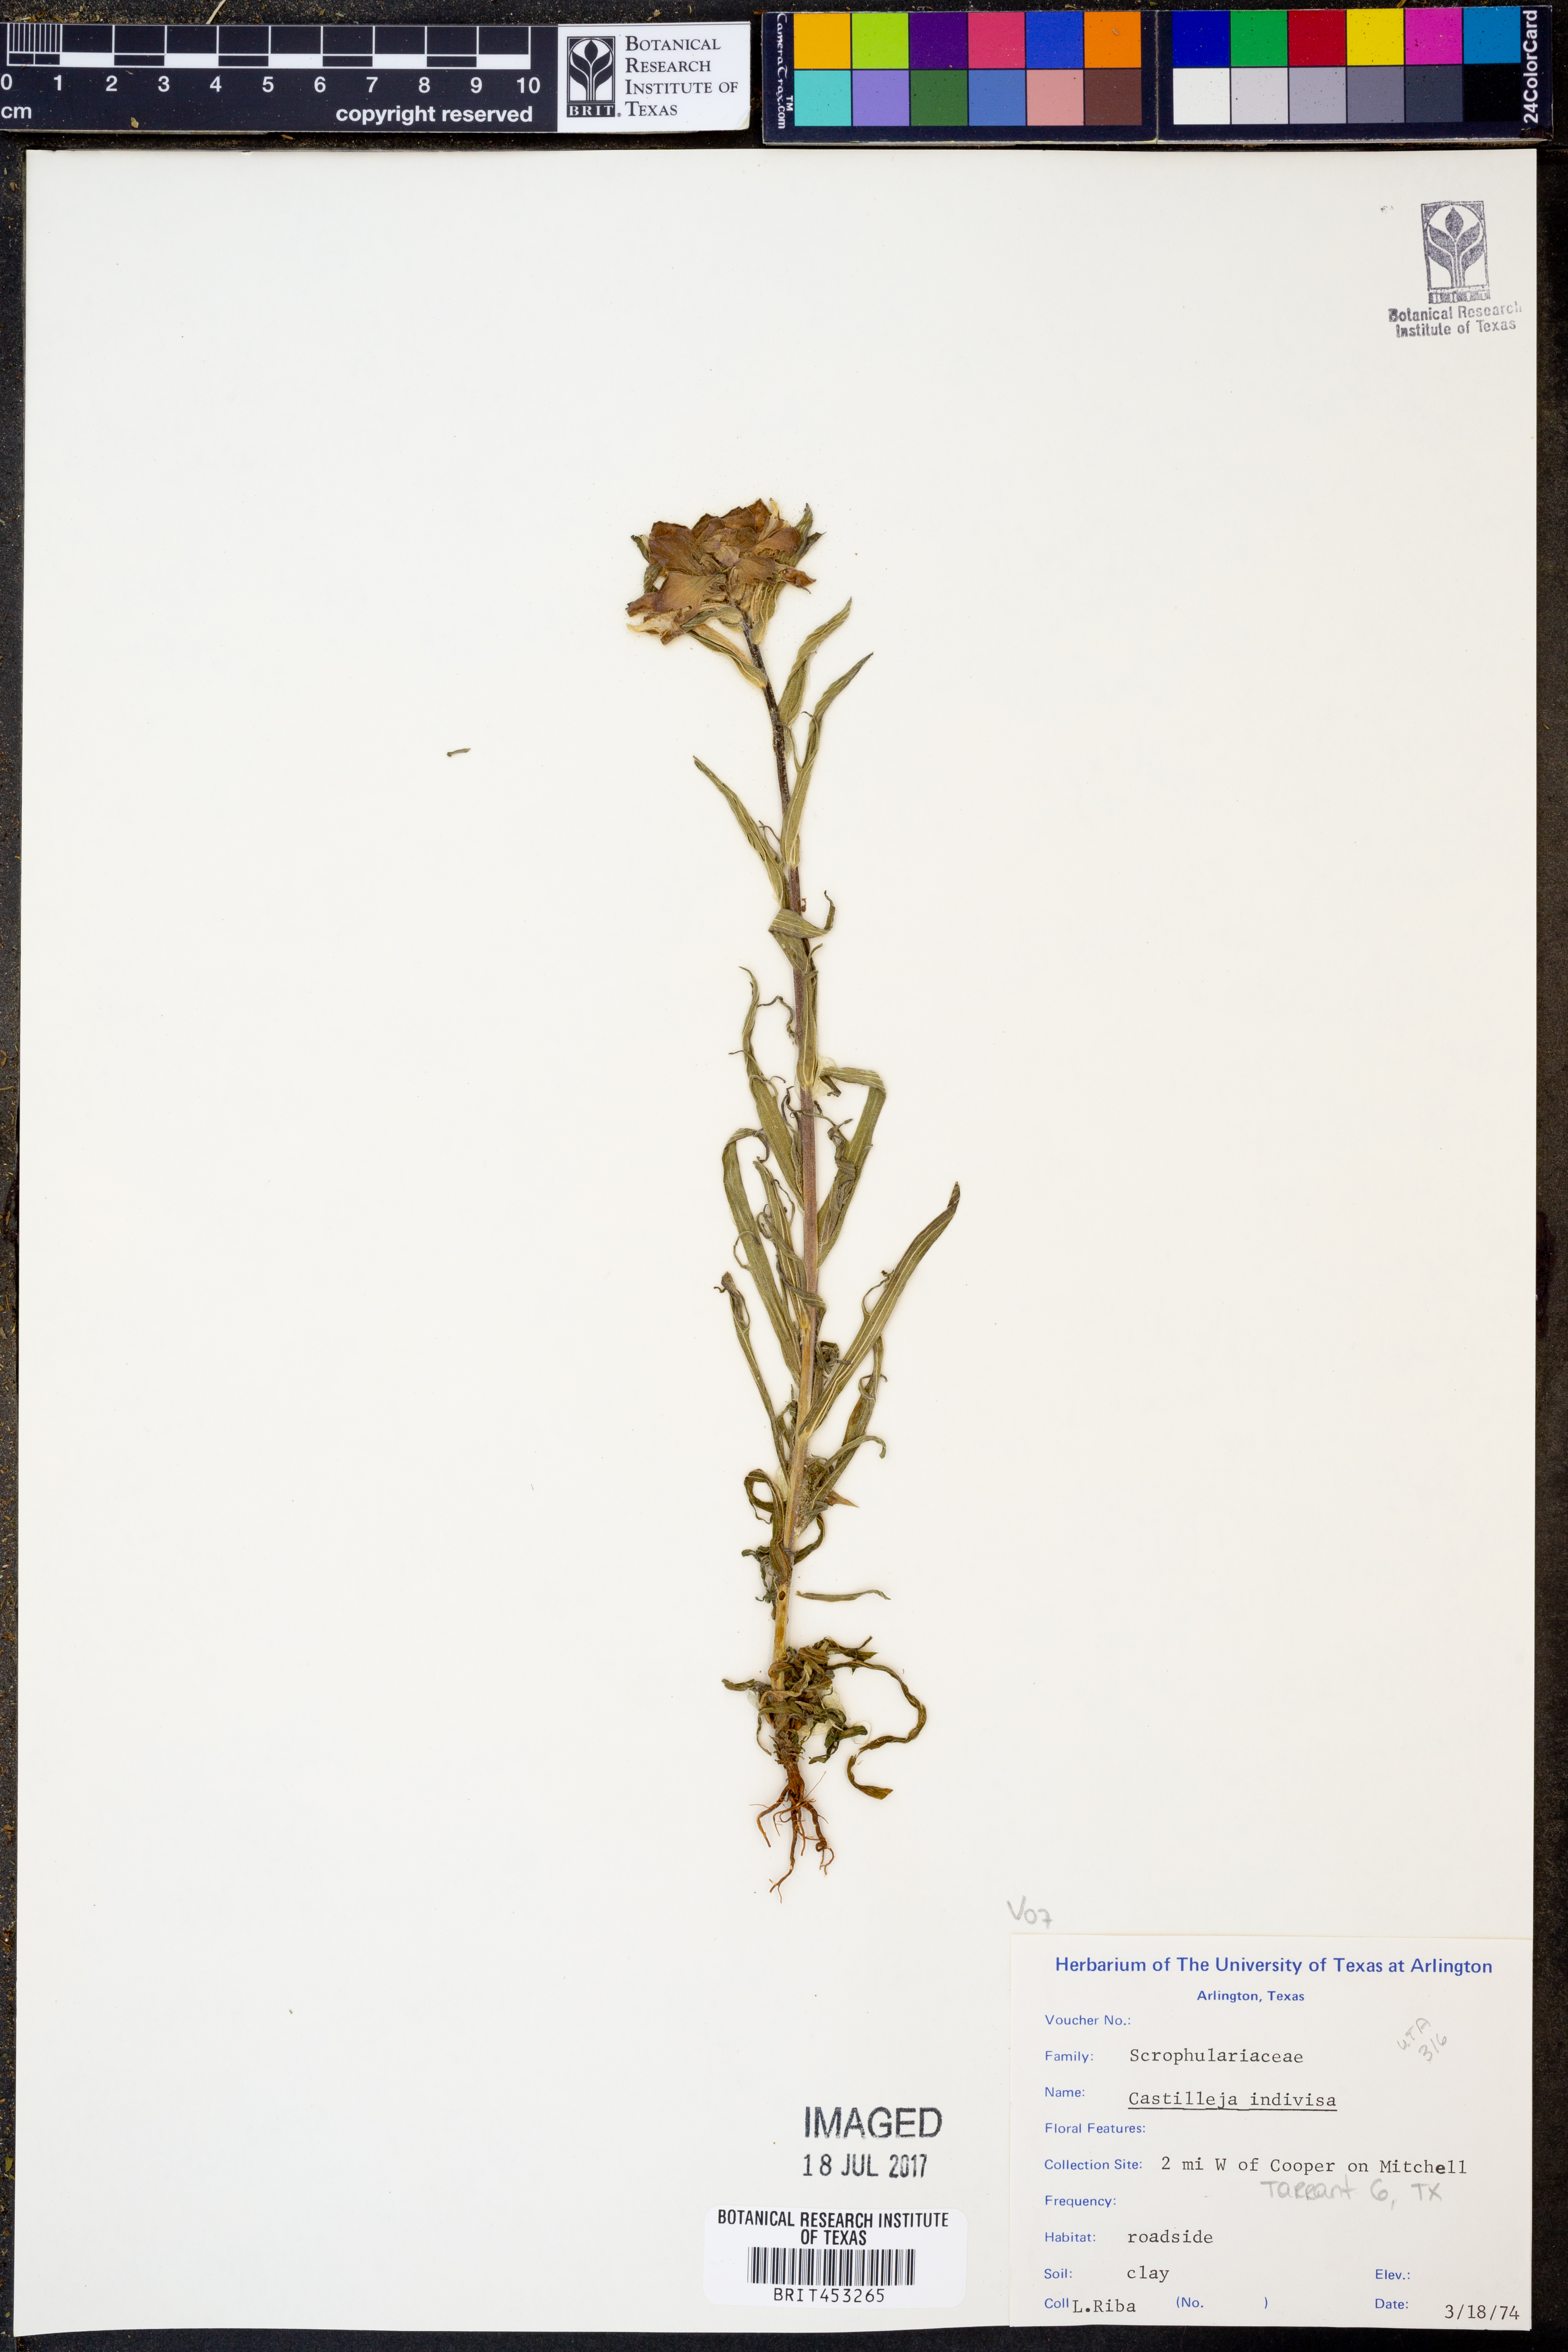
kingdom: Plantae
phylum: Tracheophyta
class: Magnoliopsida
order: Lamiales
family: Orobanchaceae
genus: Castilleja
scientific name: Castilleja indivisa
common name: Texas paintbrush
